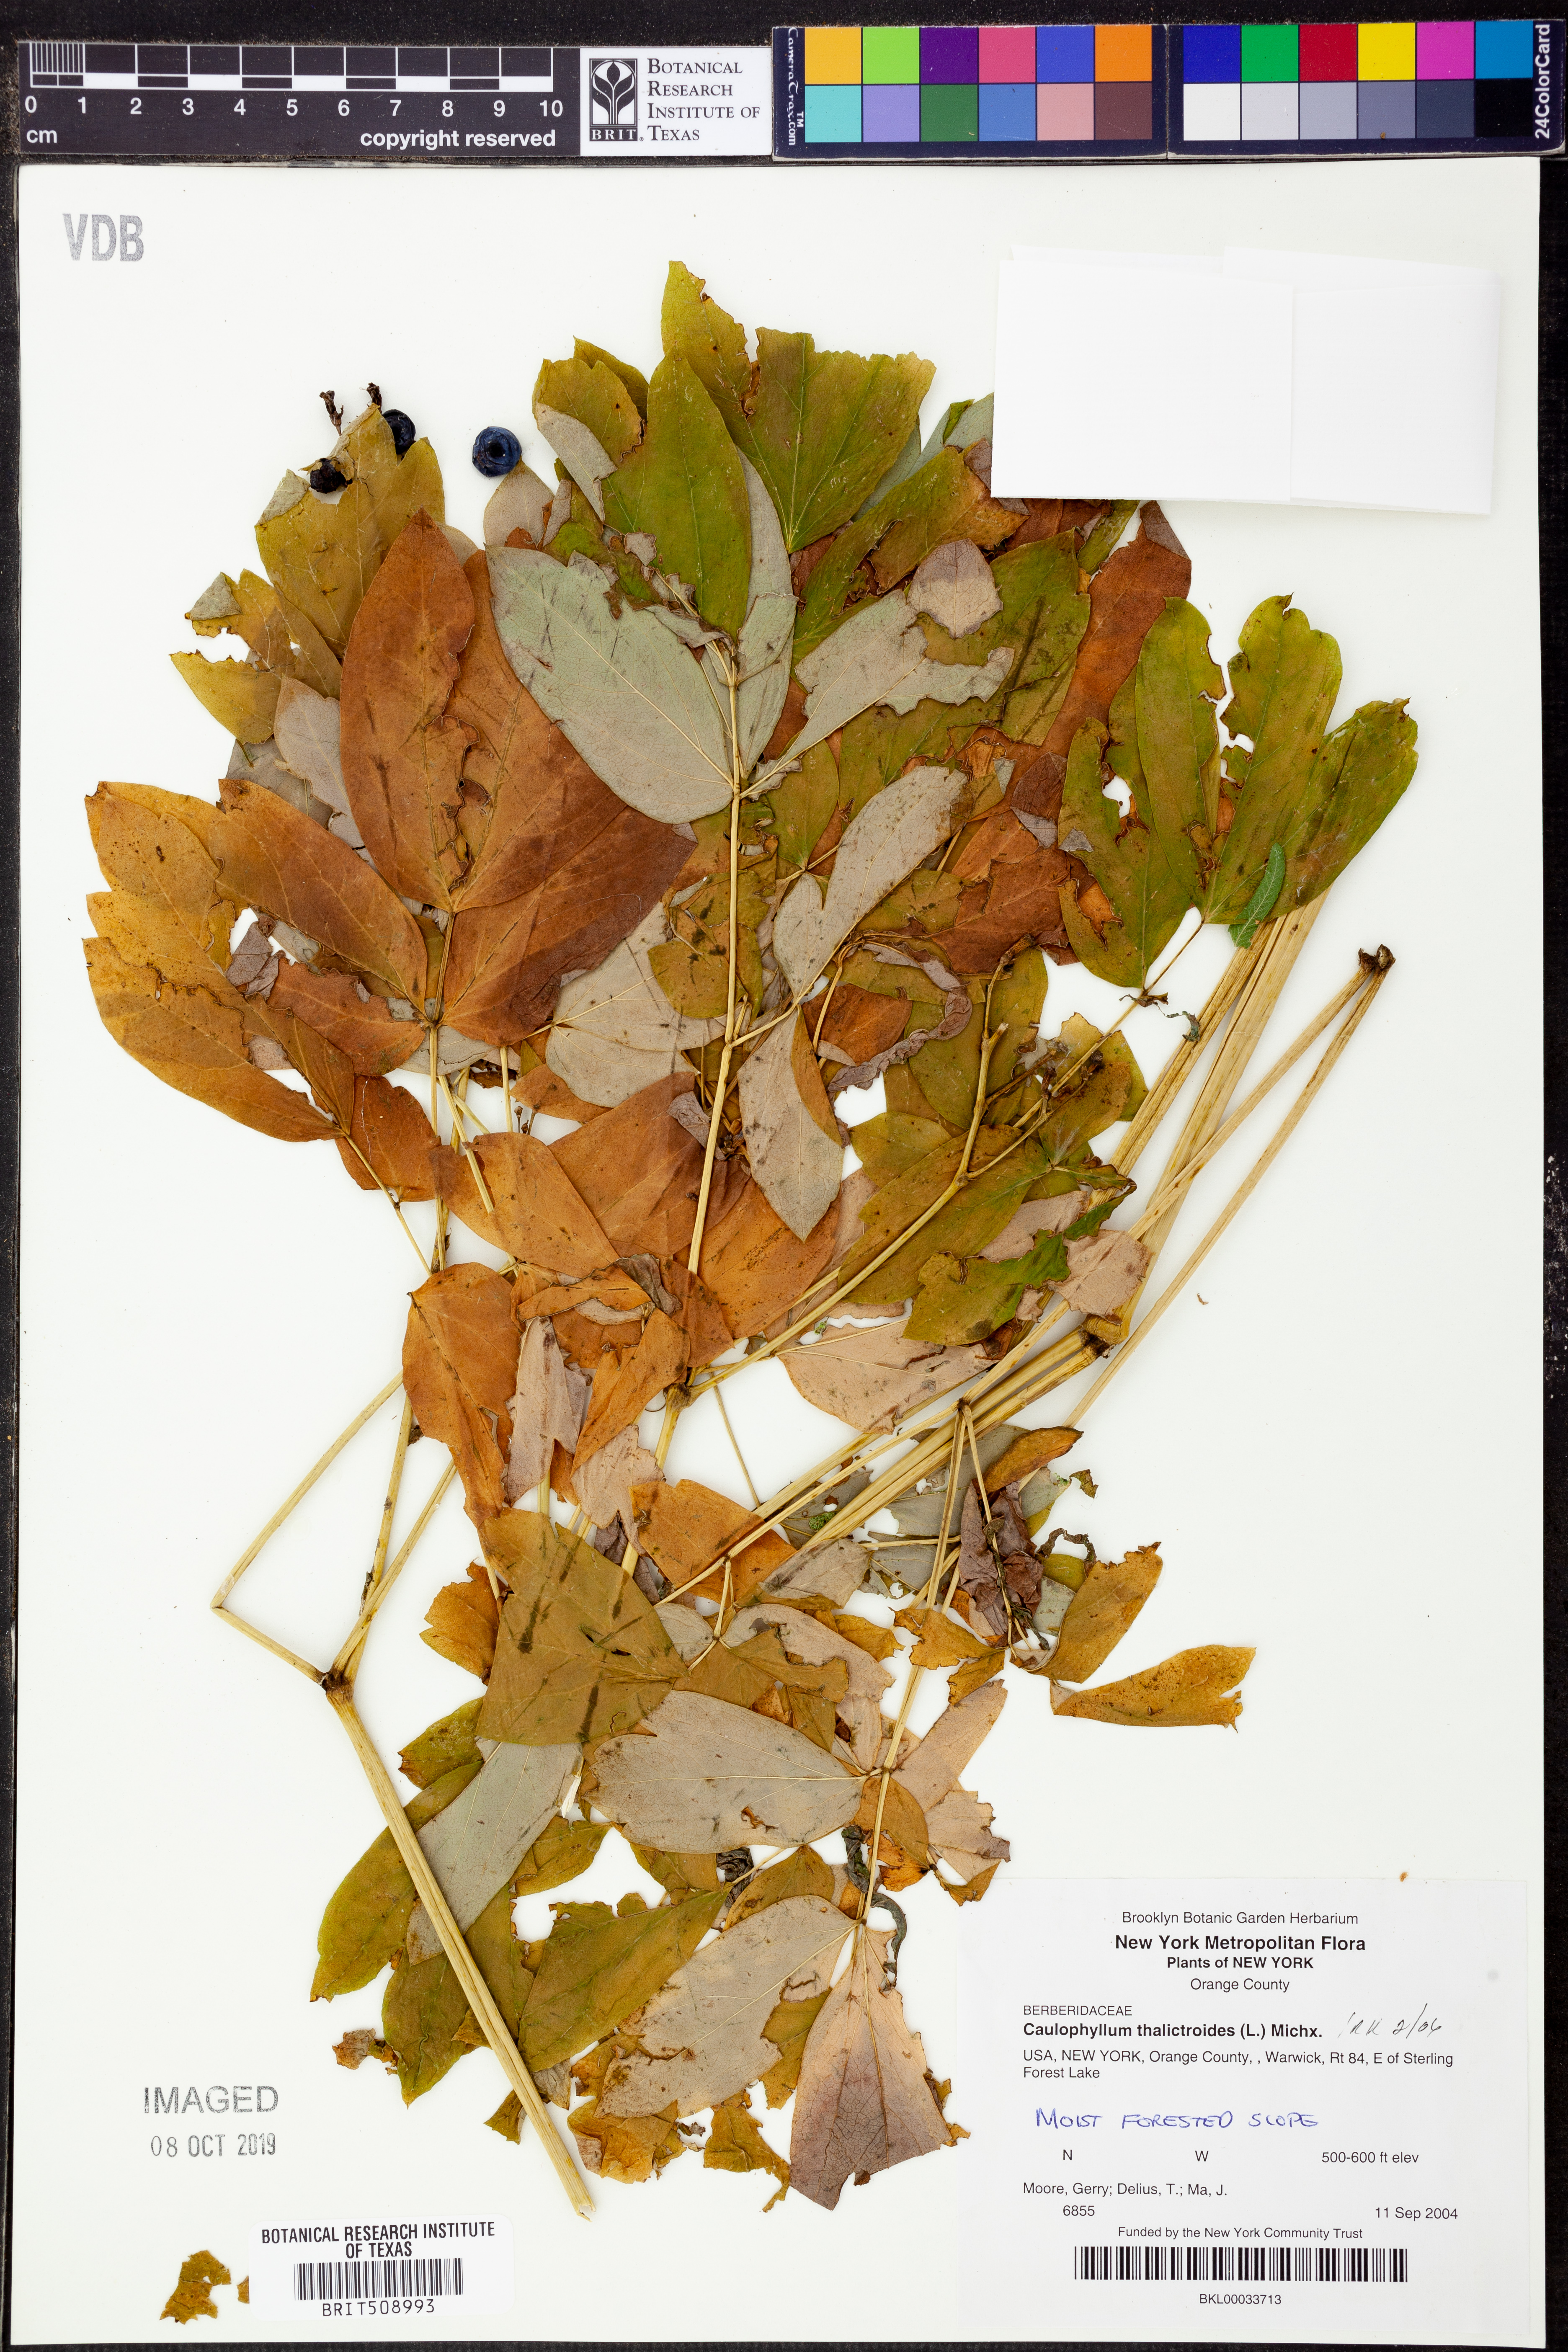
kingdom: Plantae
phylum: Tracheophyta
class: Magnoliopsida
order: Ranunculales
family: Berberidaceae
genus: Caulophyllum
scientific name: Caulophyllum thalictroides
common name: Blue cohosh
